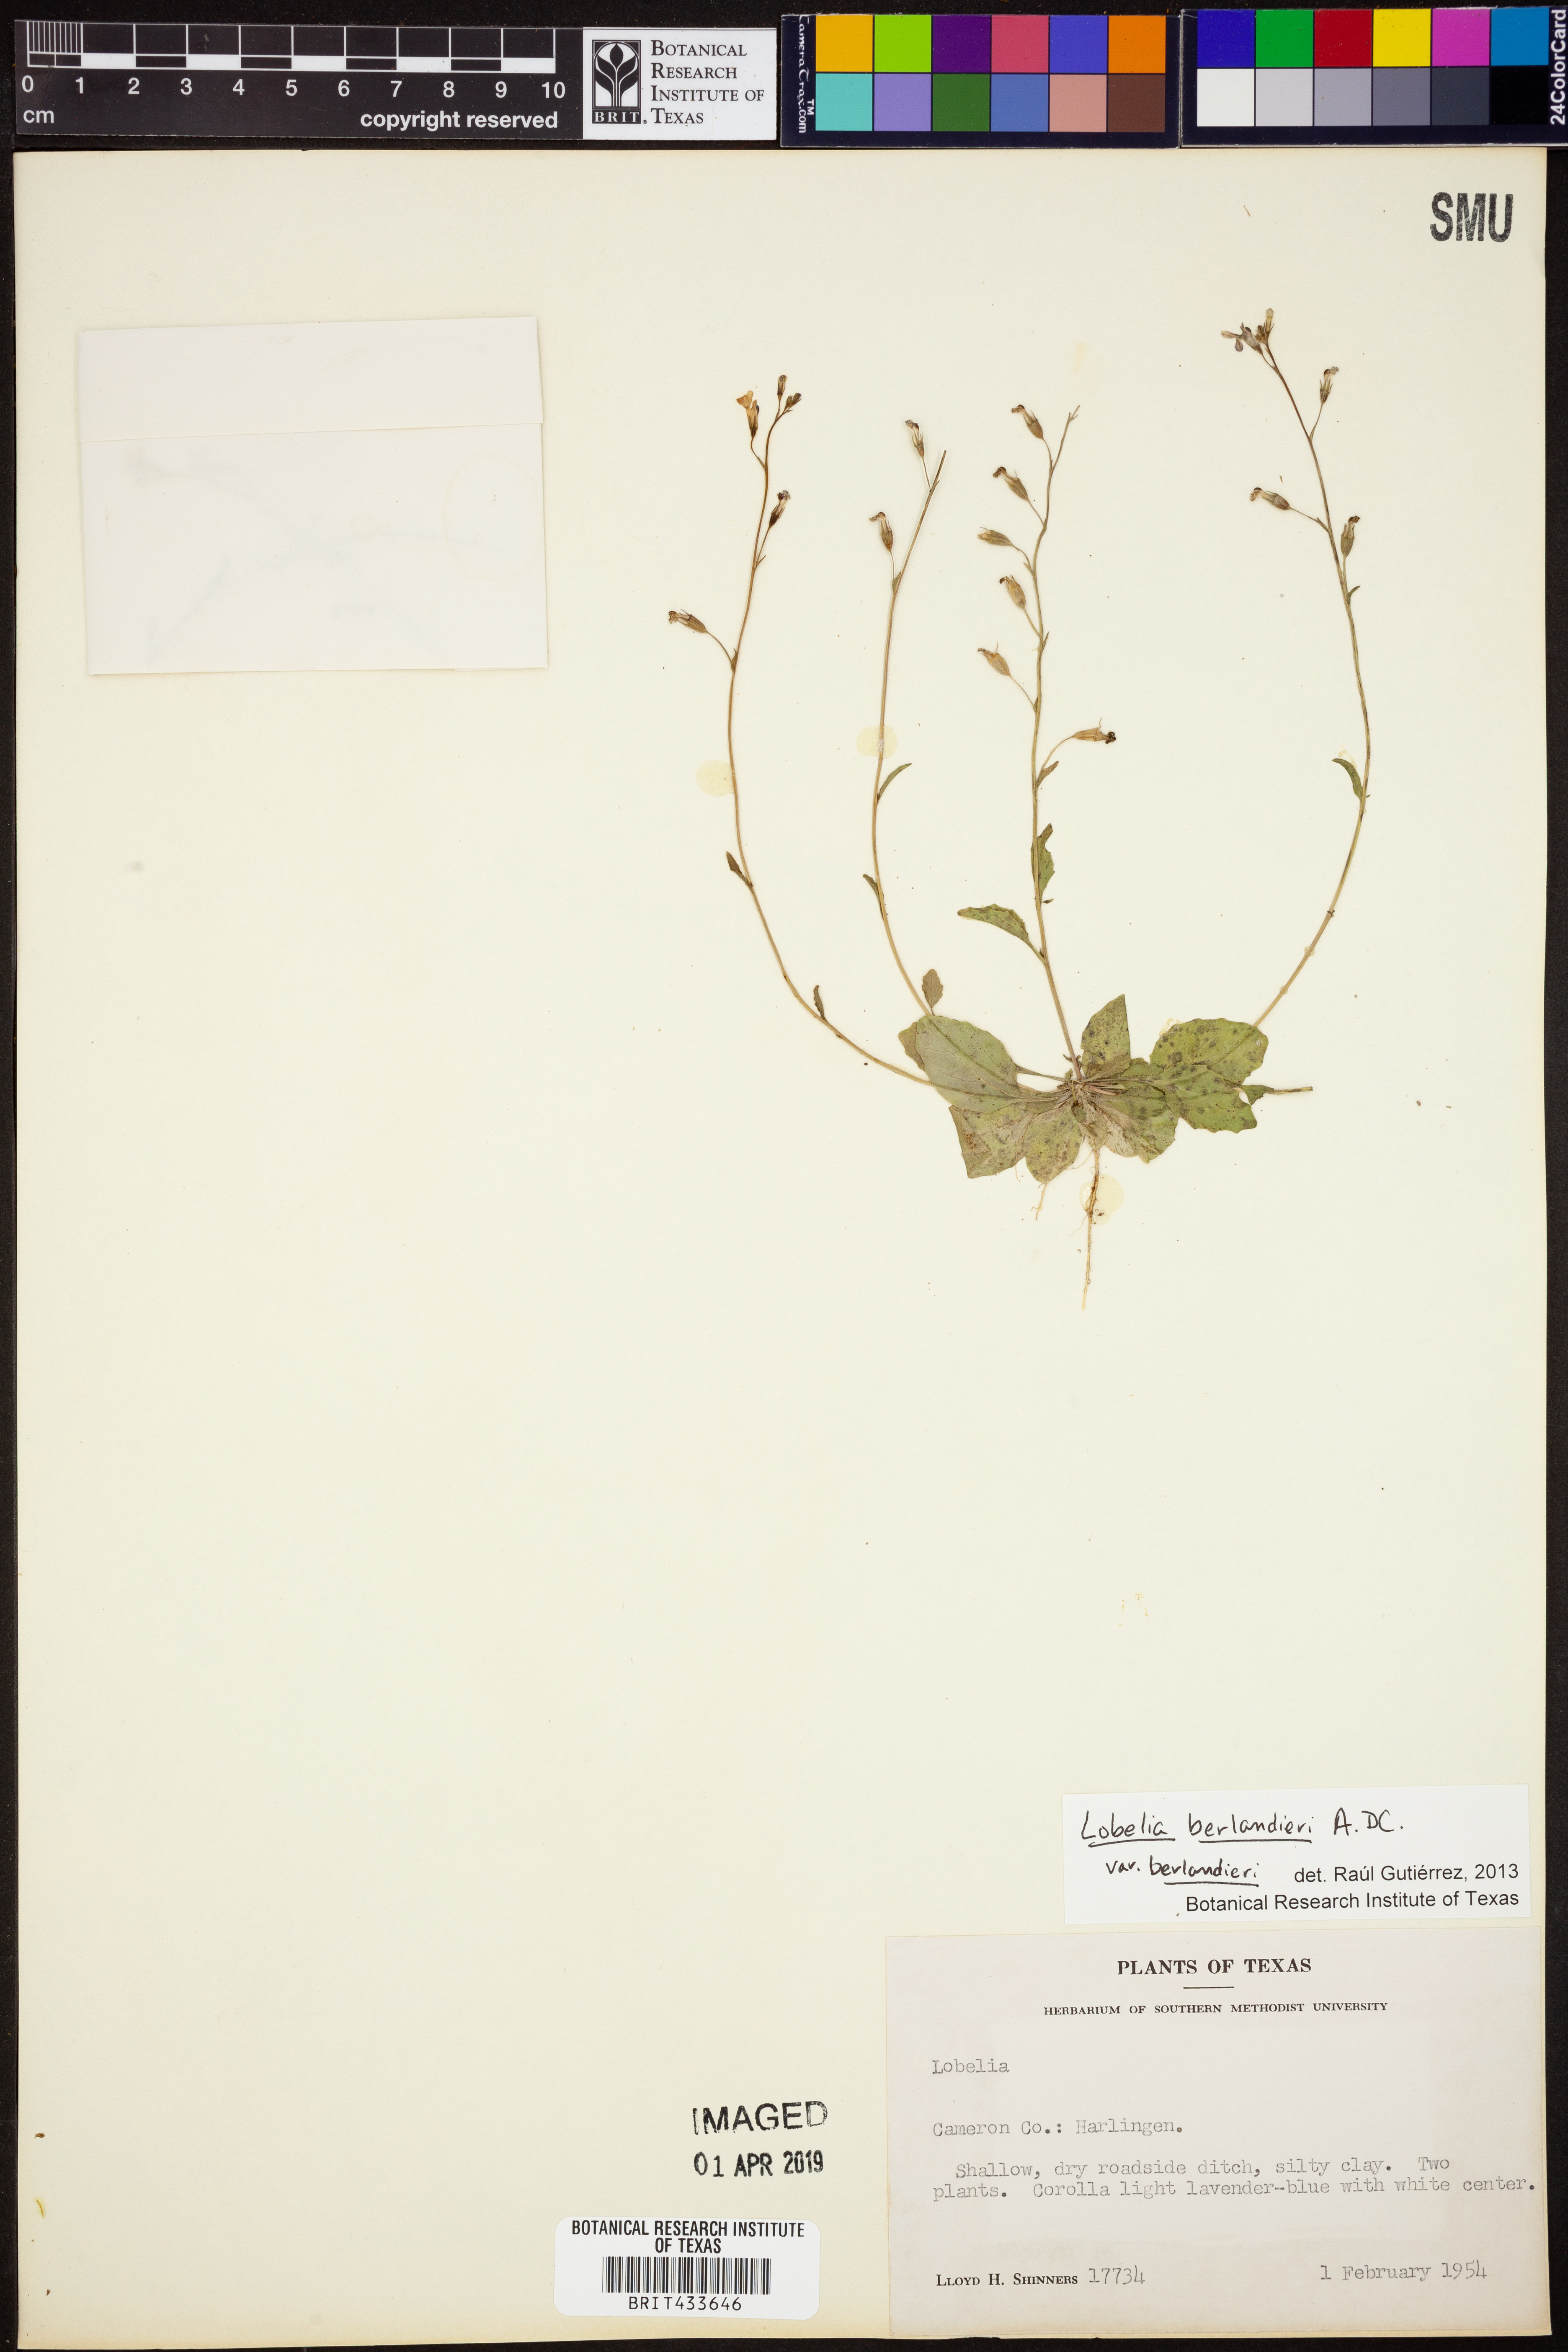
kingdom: Plantae
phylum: Tracheophyta
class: Magnoliopsida
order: Asterales
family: Campanulaceae
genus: Lobelia
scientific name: Lobelia berlandieri
